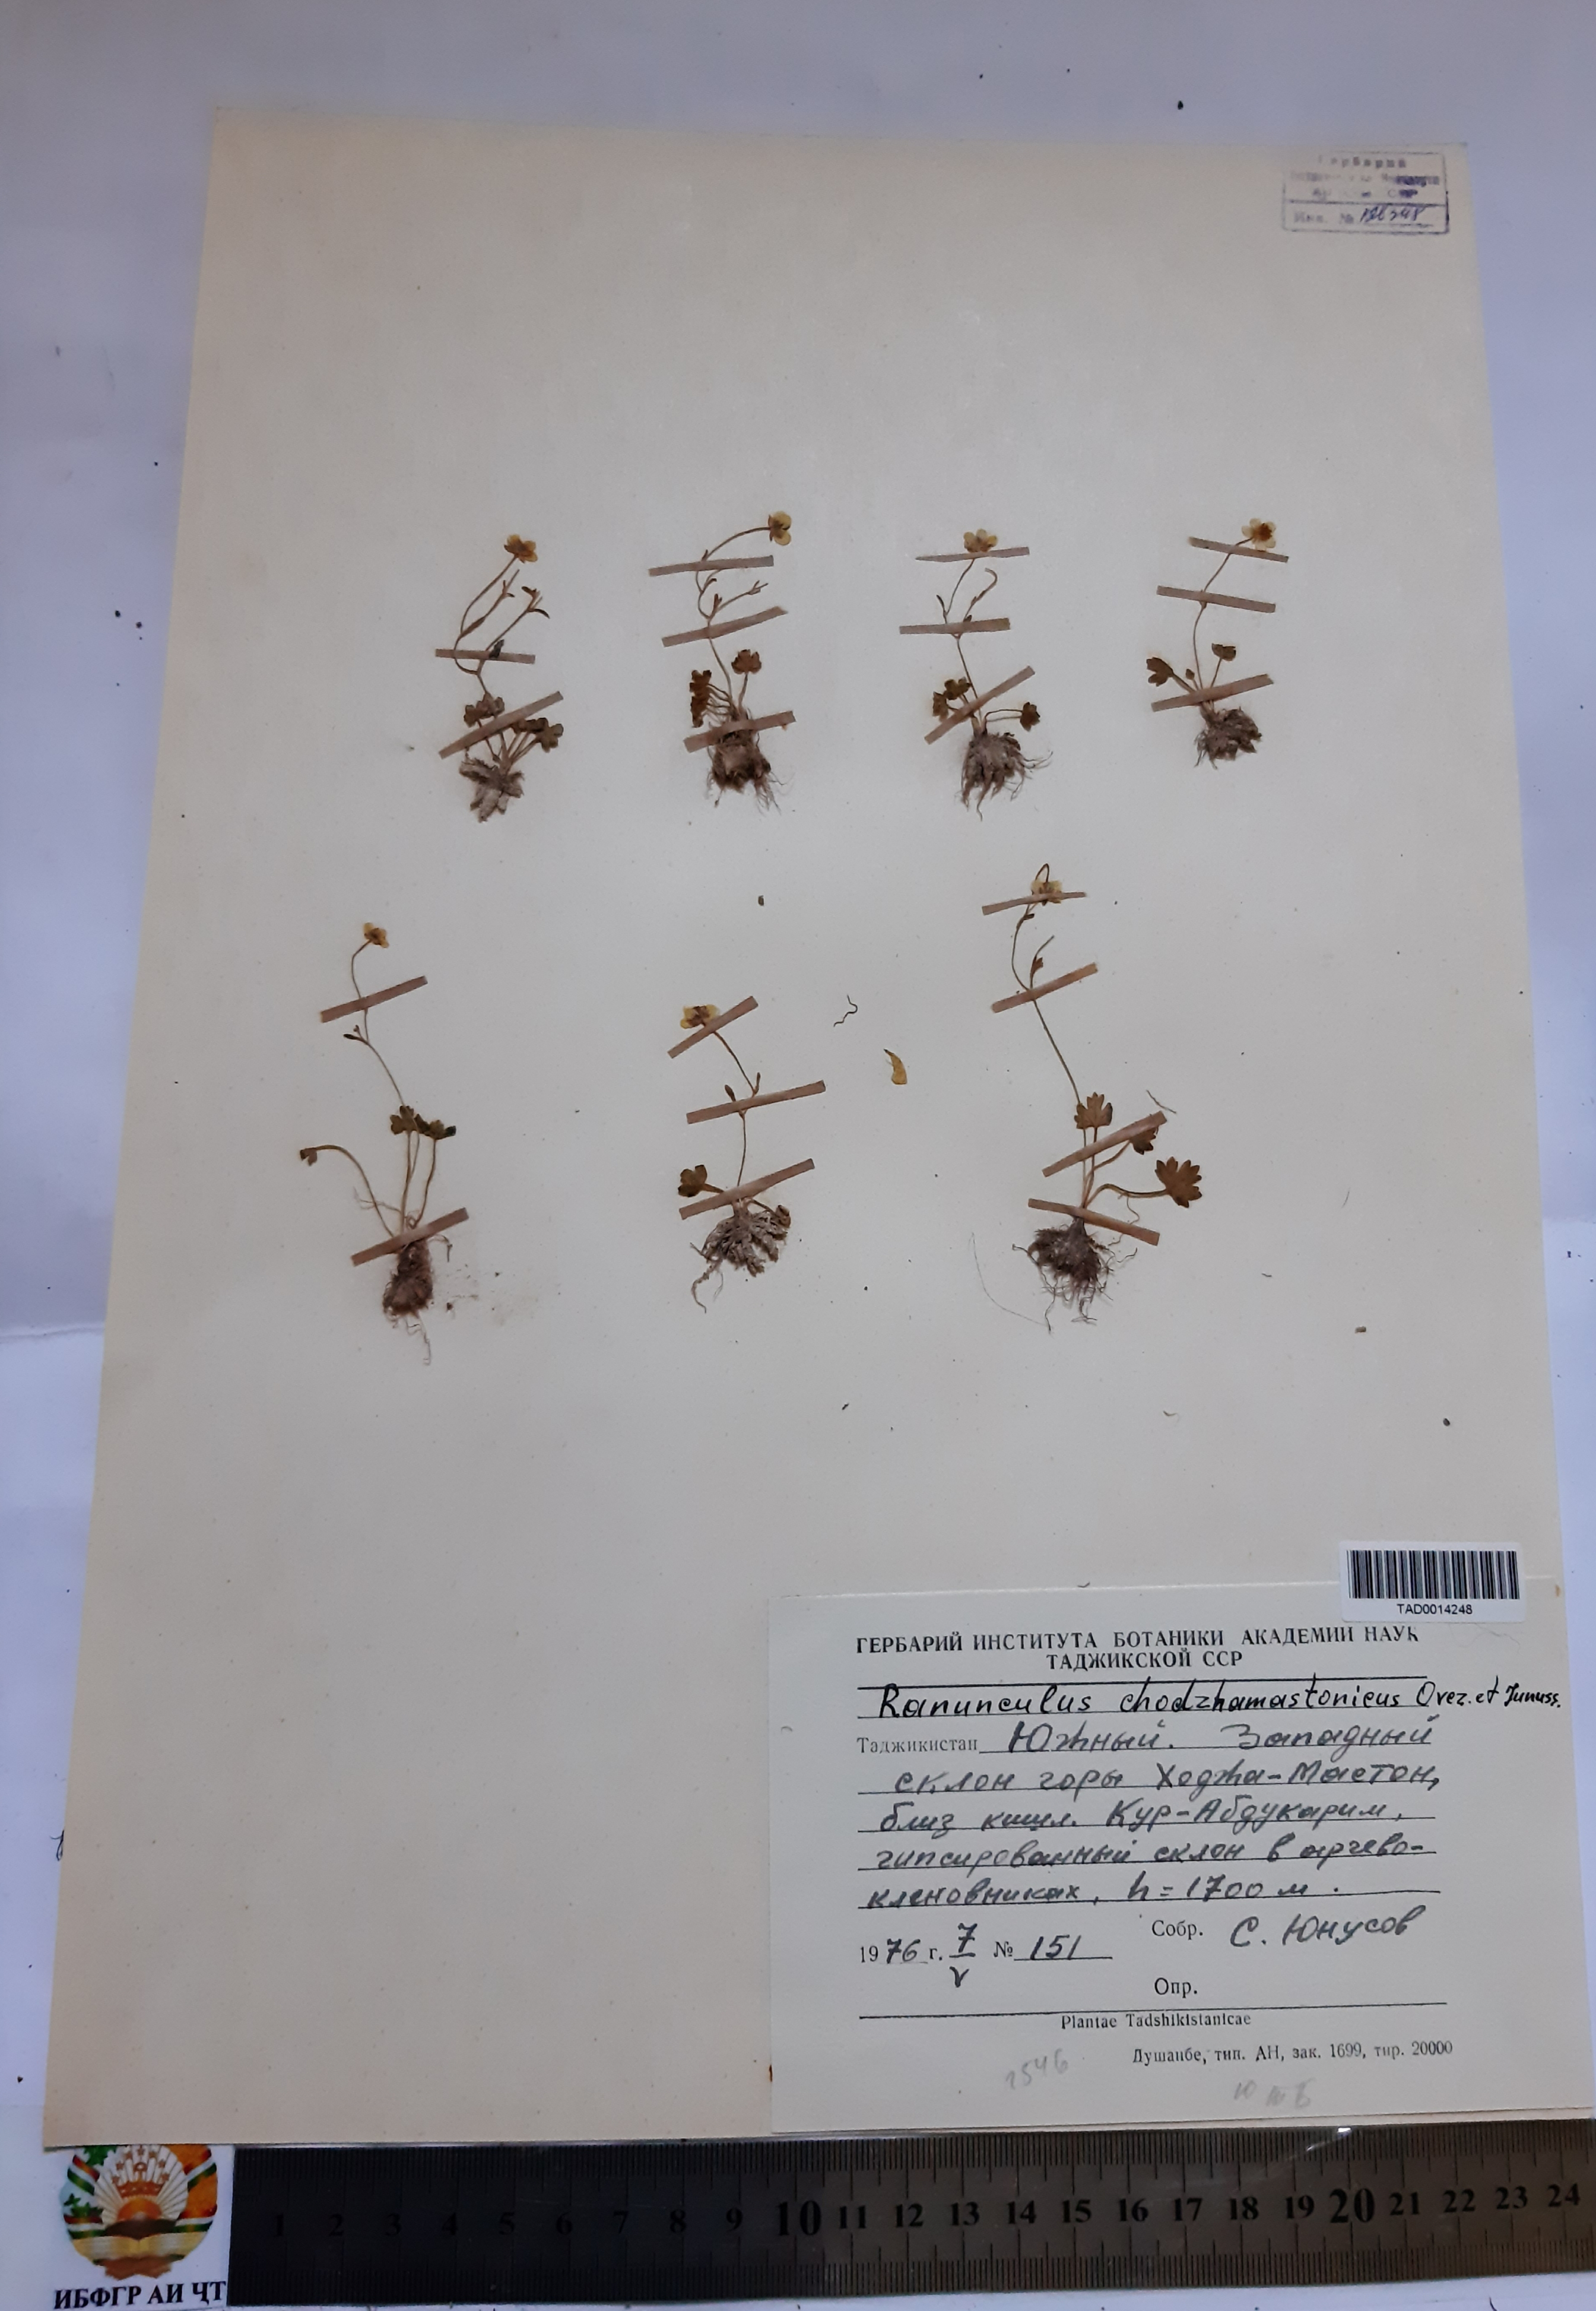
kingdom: Plantae
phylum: Tracheophyta
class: Magnoliopsida
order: Ranunculales
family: Ranunculaceae
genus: Ranunculus
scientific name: Ranunculus chodzhamastonicus
